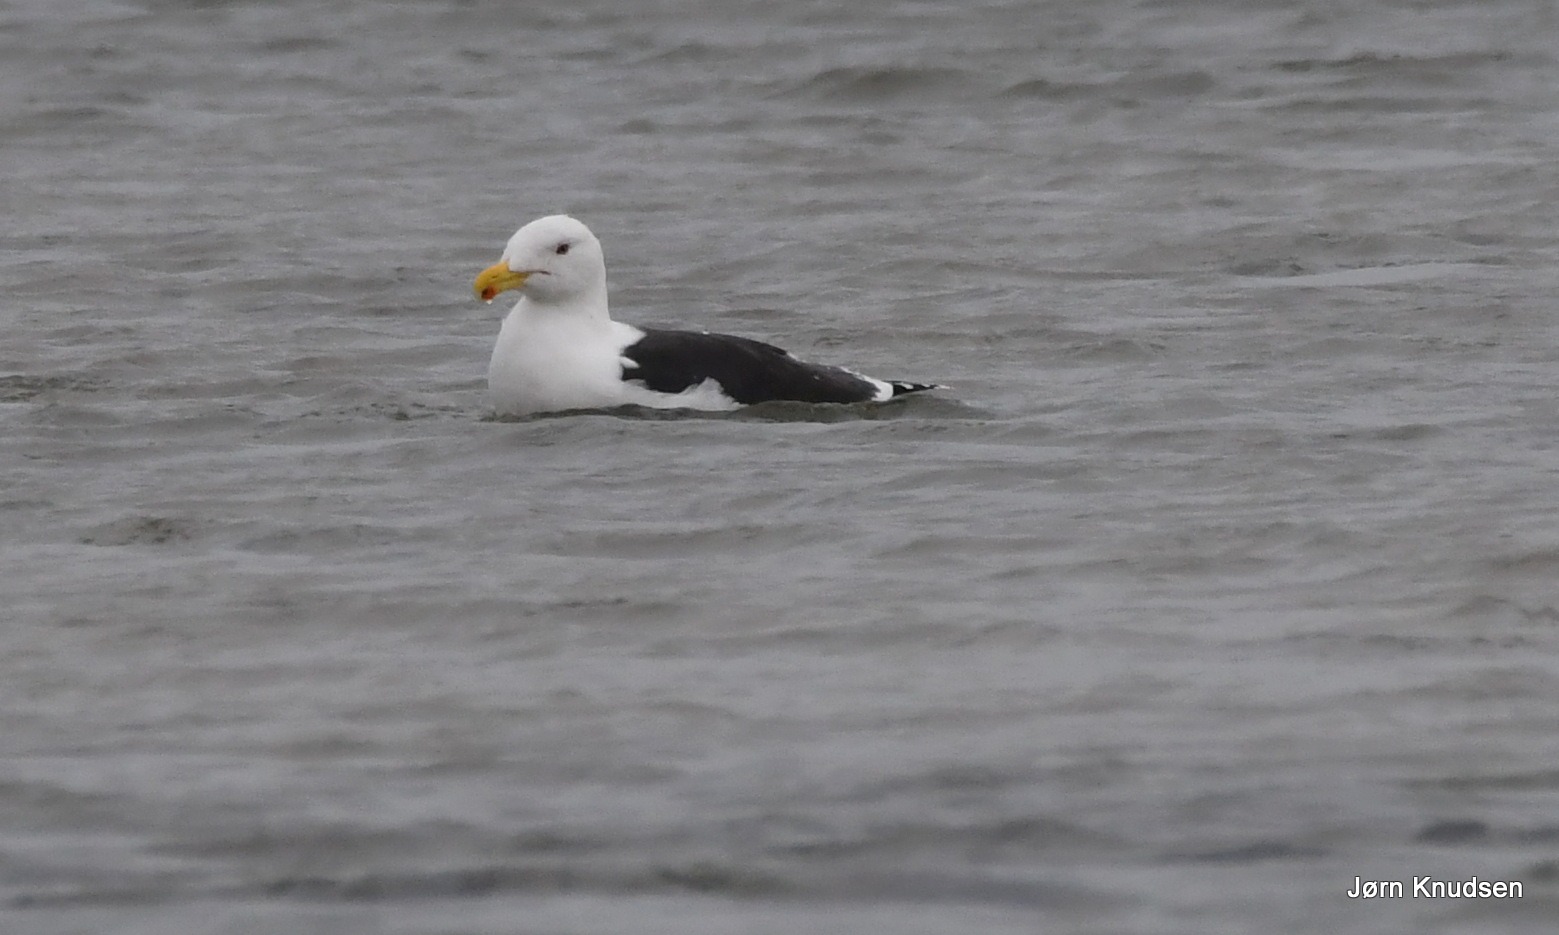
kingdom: Animalia
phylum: Chordata
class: Aves
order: Charadriiformes
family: Laridae
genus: Larus
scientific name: Larus marinus
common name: Svartbag
